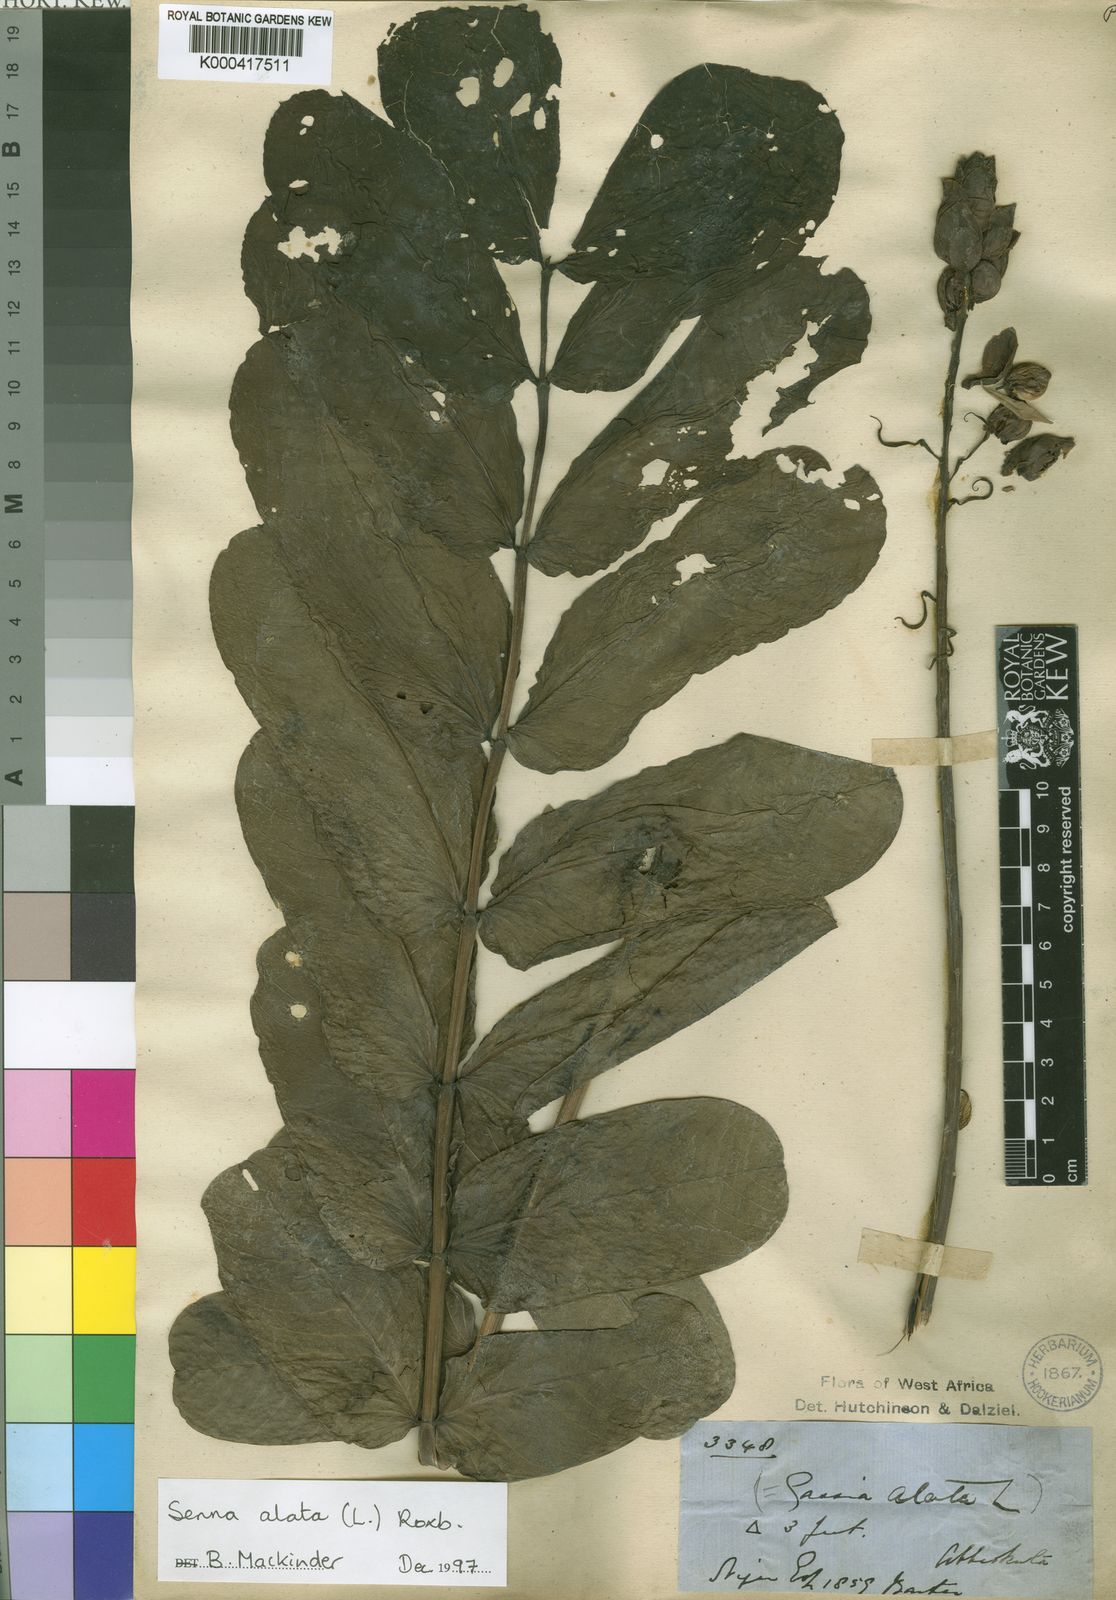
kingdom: Plantae
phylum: Tracheophyta
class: Magnoliopsida
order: Fabales
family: Fabaceae
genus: Senna
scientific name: Senna alata
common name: Emperor's candlesticks
